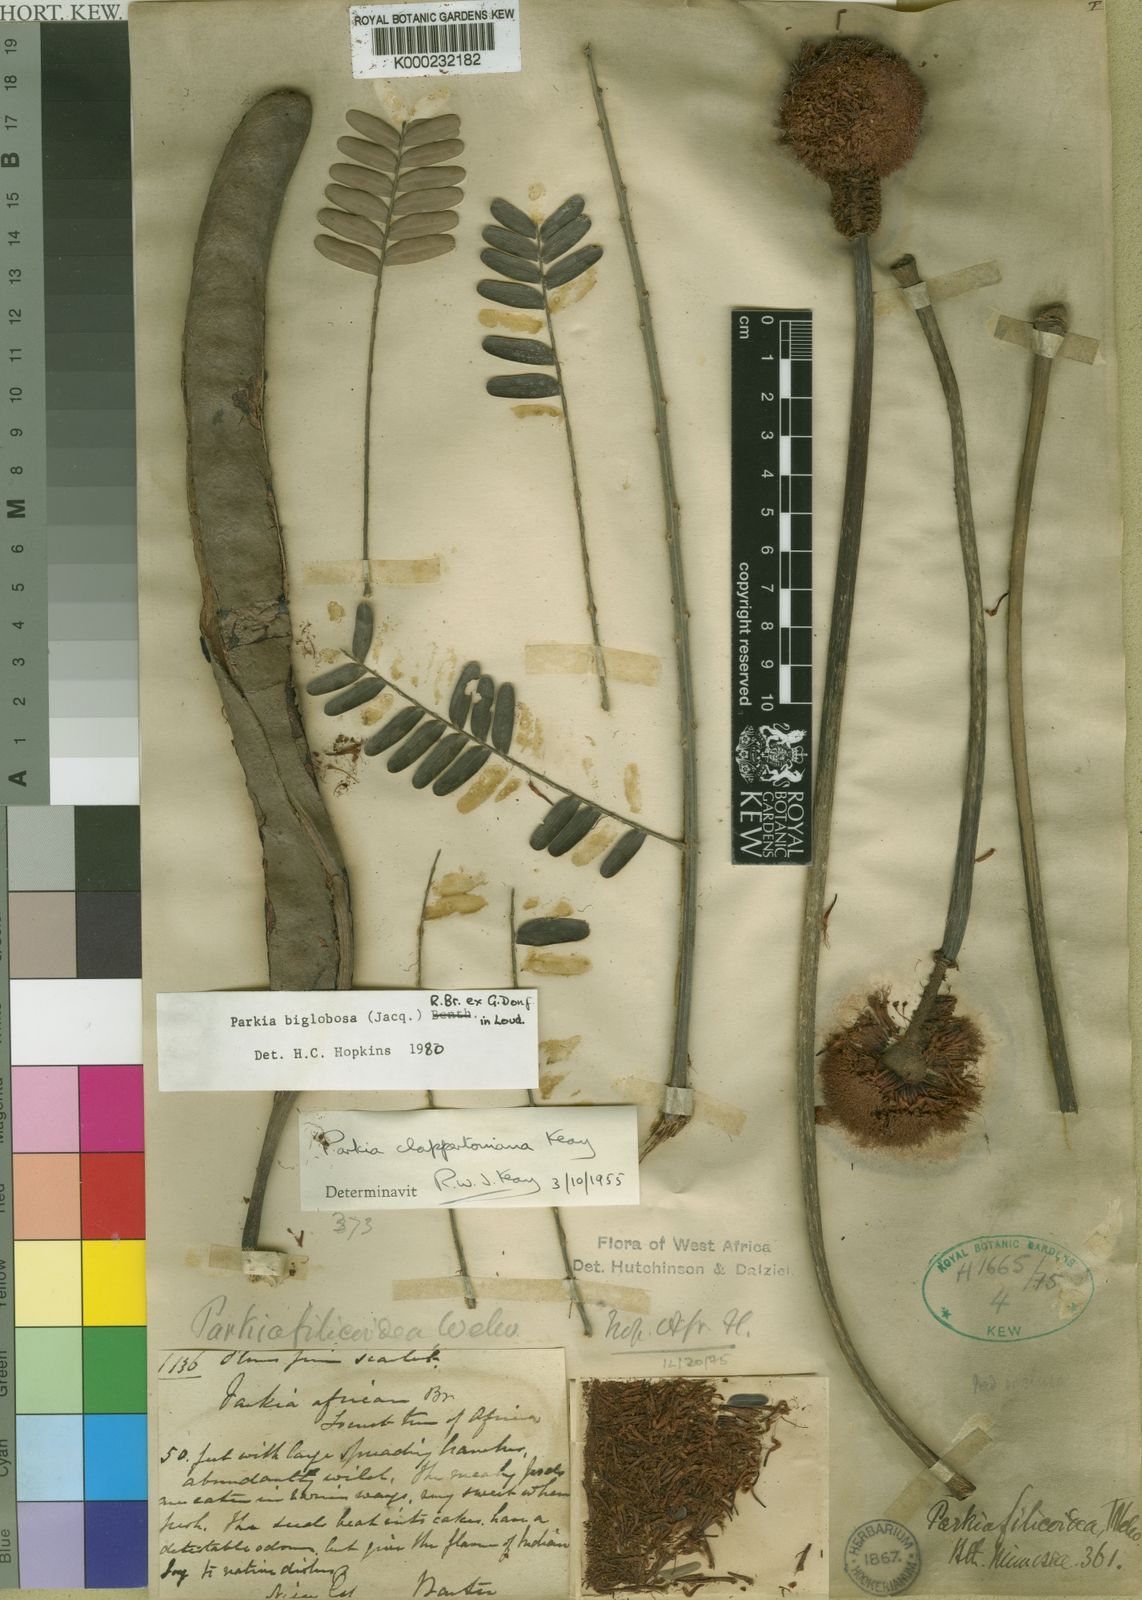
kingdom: Plantae
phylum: Tracheophyta
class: Magnoliopsida
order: Fabales
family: Fabaceae
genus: Parkia
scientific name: Parkia biglobosa
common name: African locust-bean
